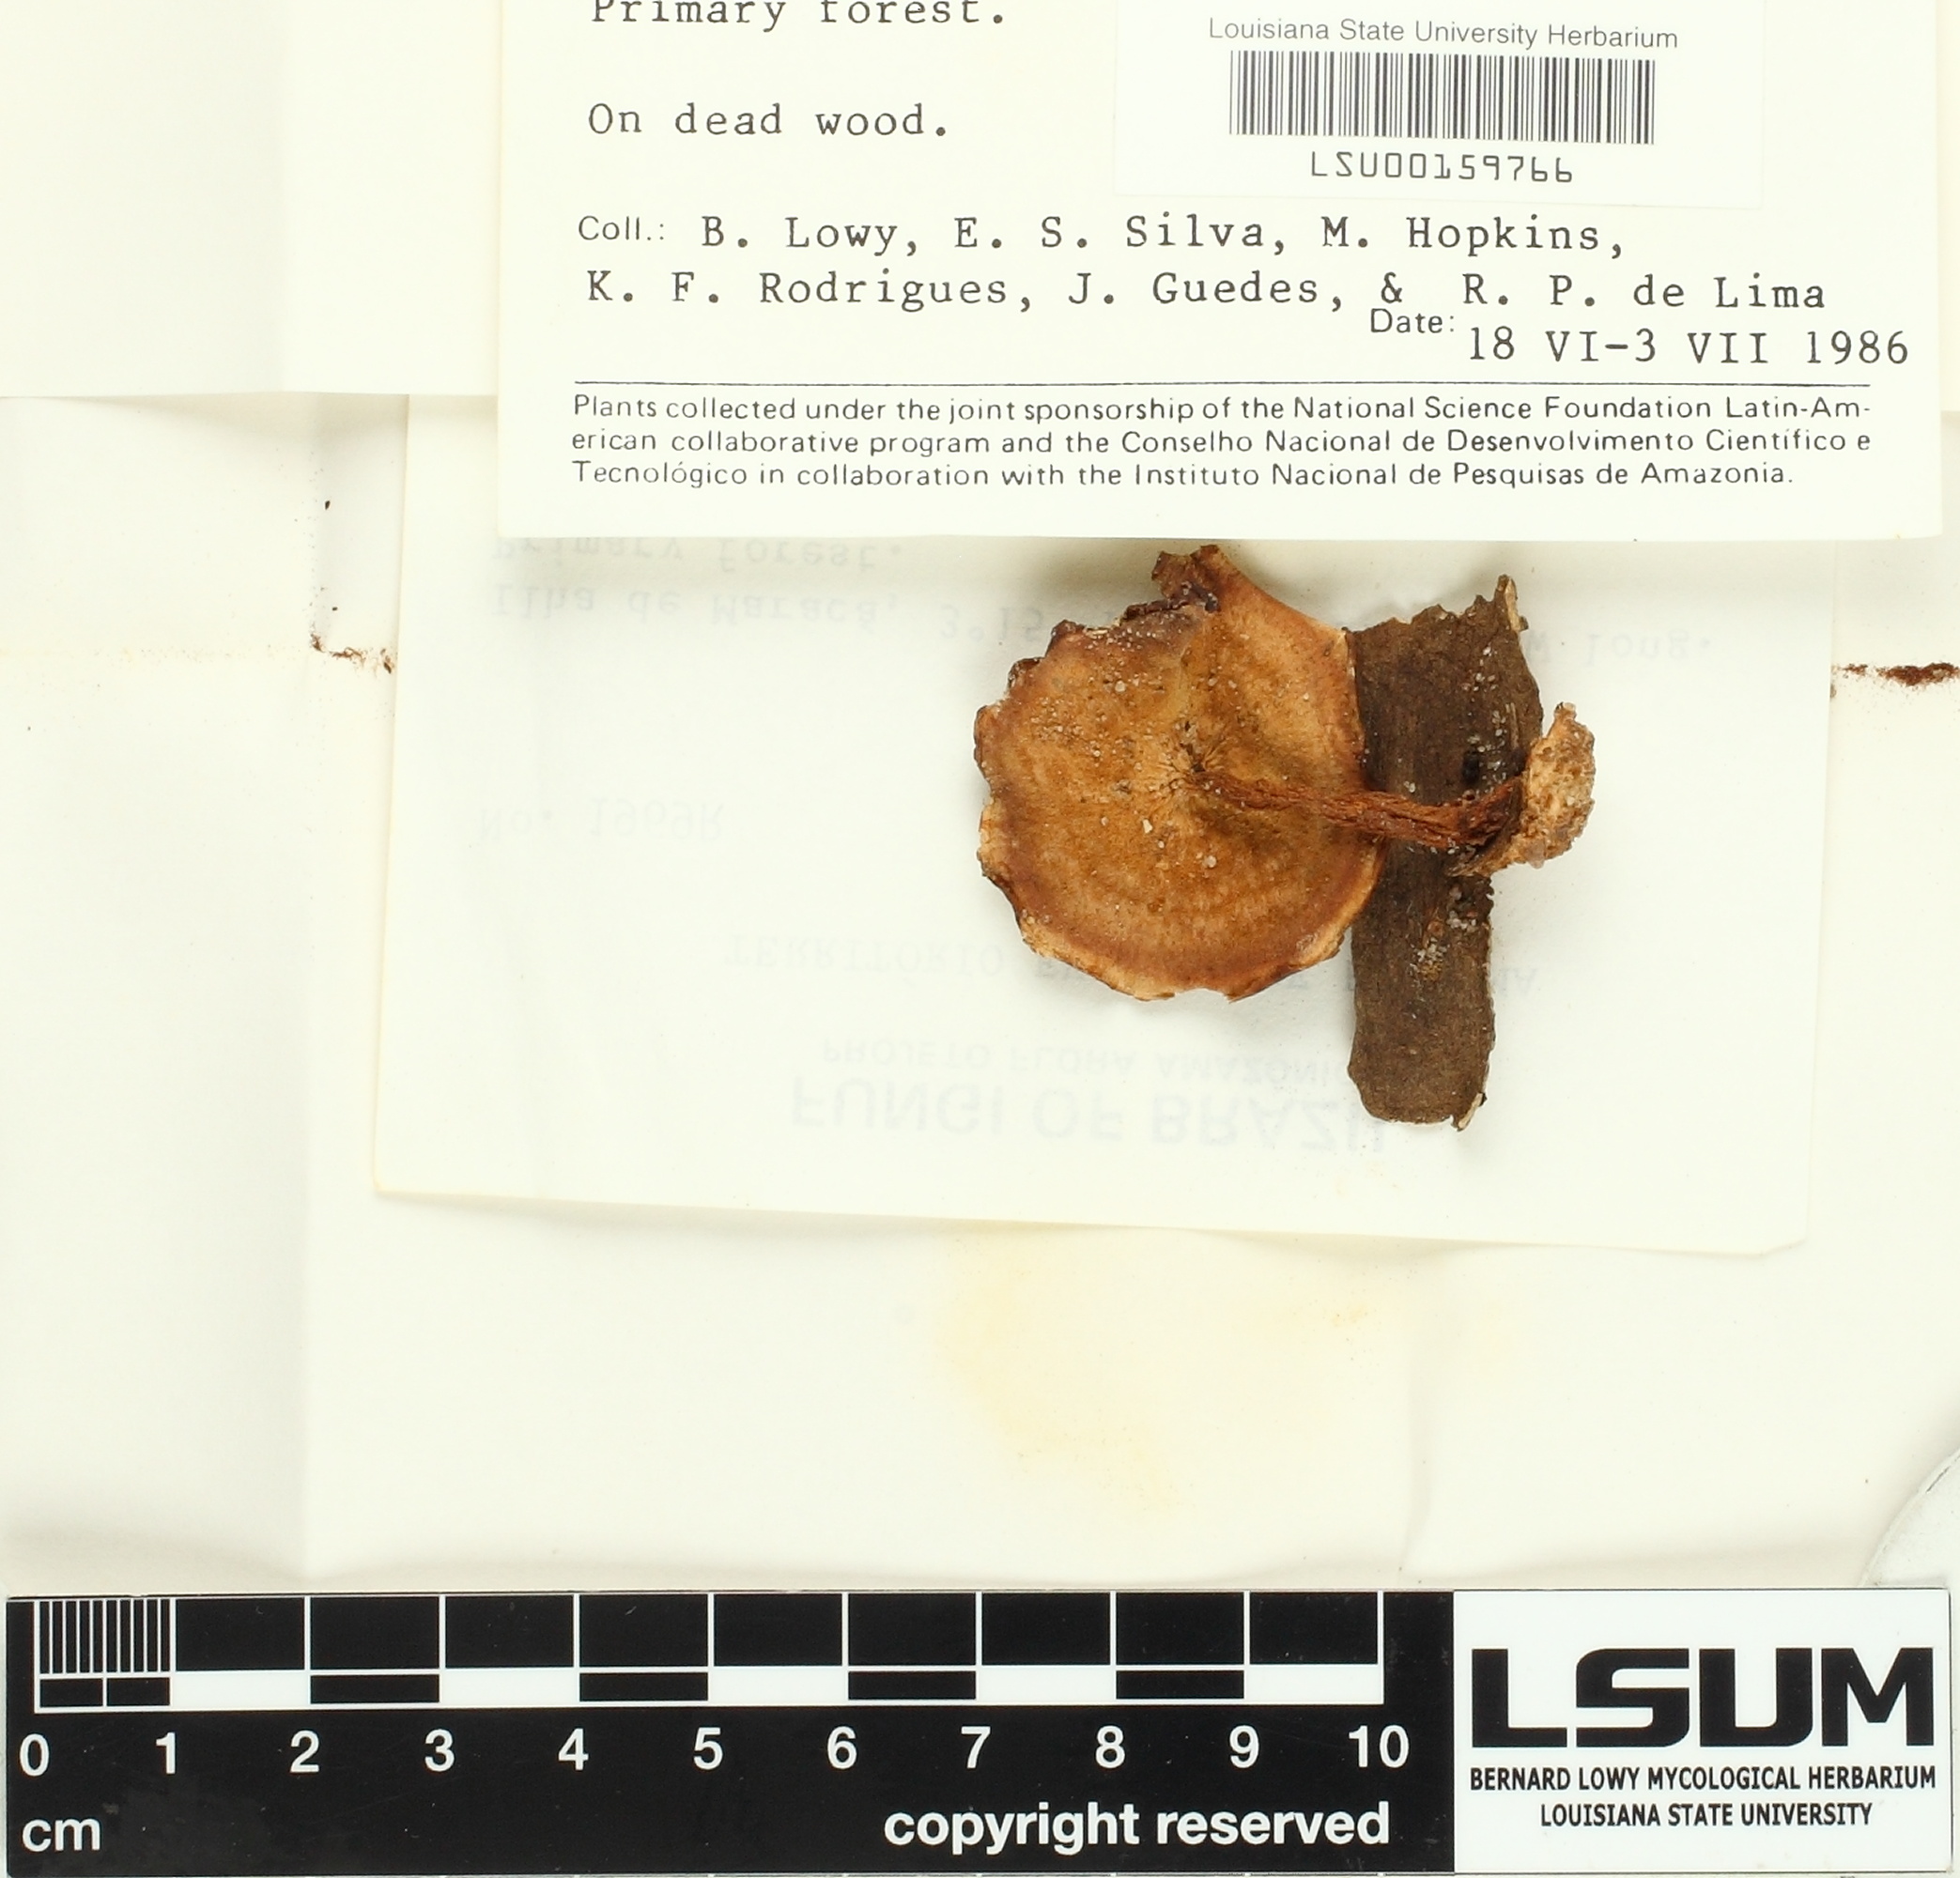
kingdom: Fungi
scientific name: Fungi
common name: Fungi
